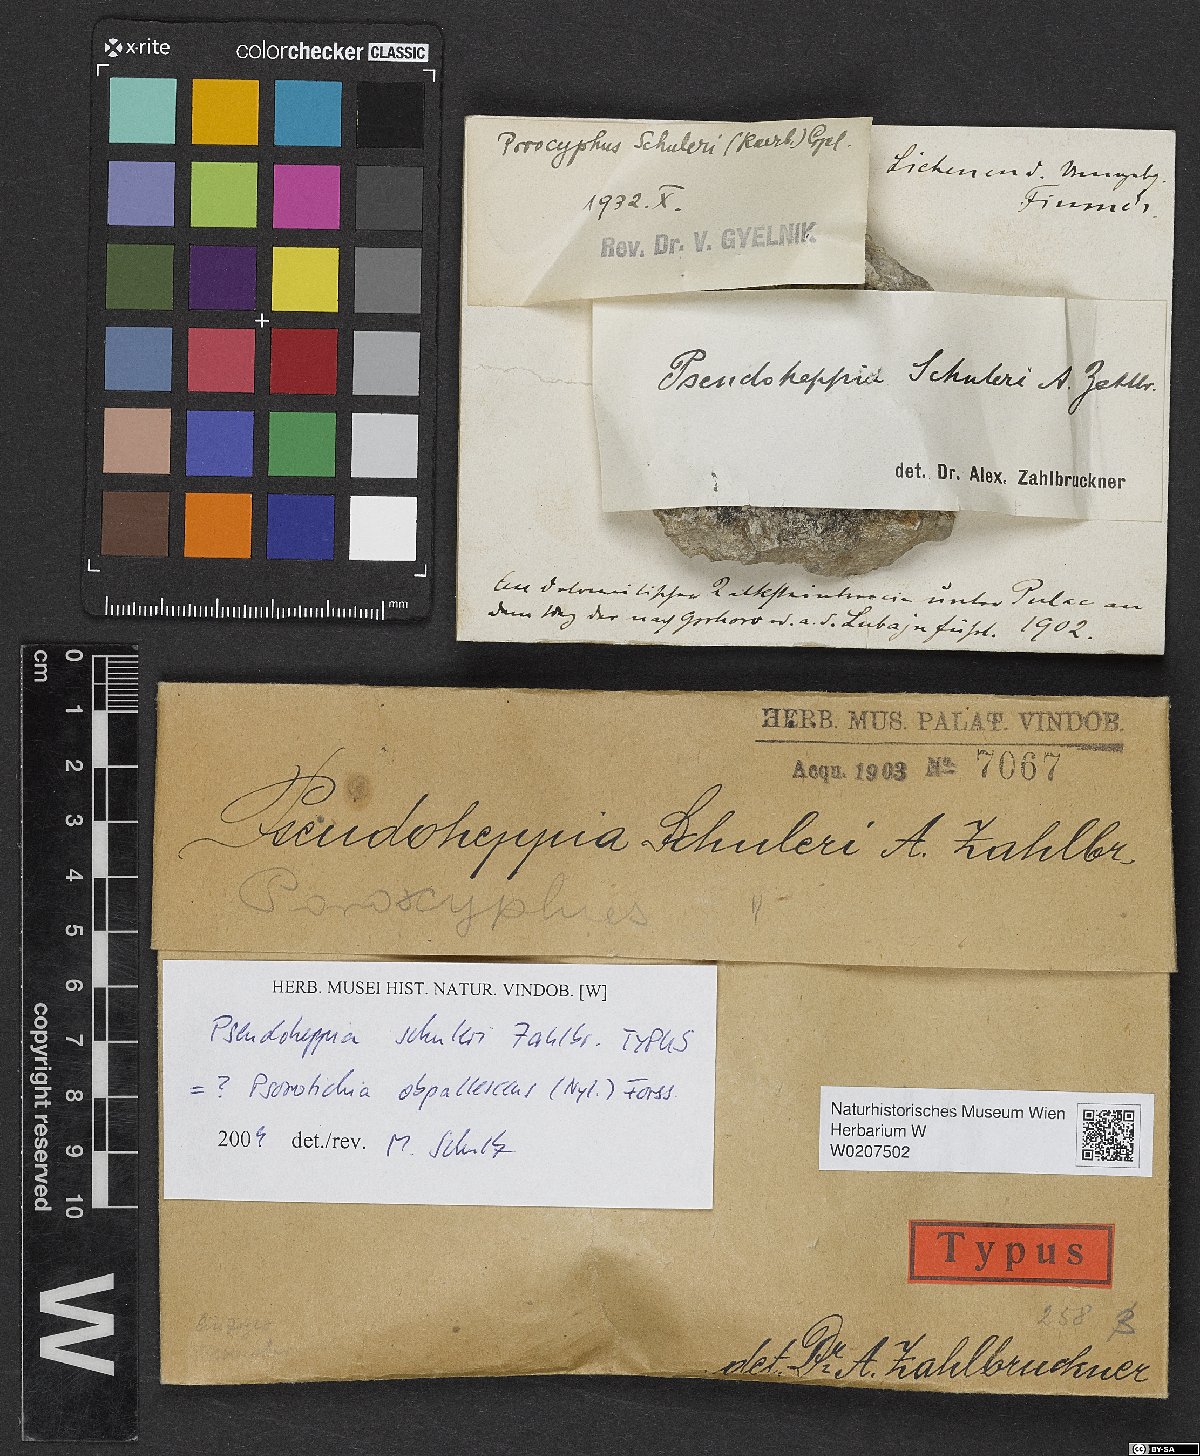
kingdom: Fungi
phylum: Ascomycota
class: Lichinomycetes
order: Lichinales
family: Lichinaceae
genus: Pseudoheppia
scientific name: Pseudoheppia schuleri
